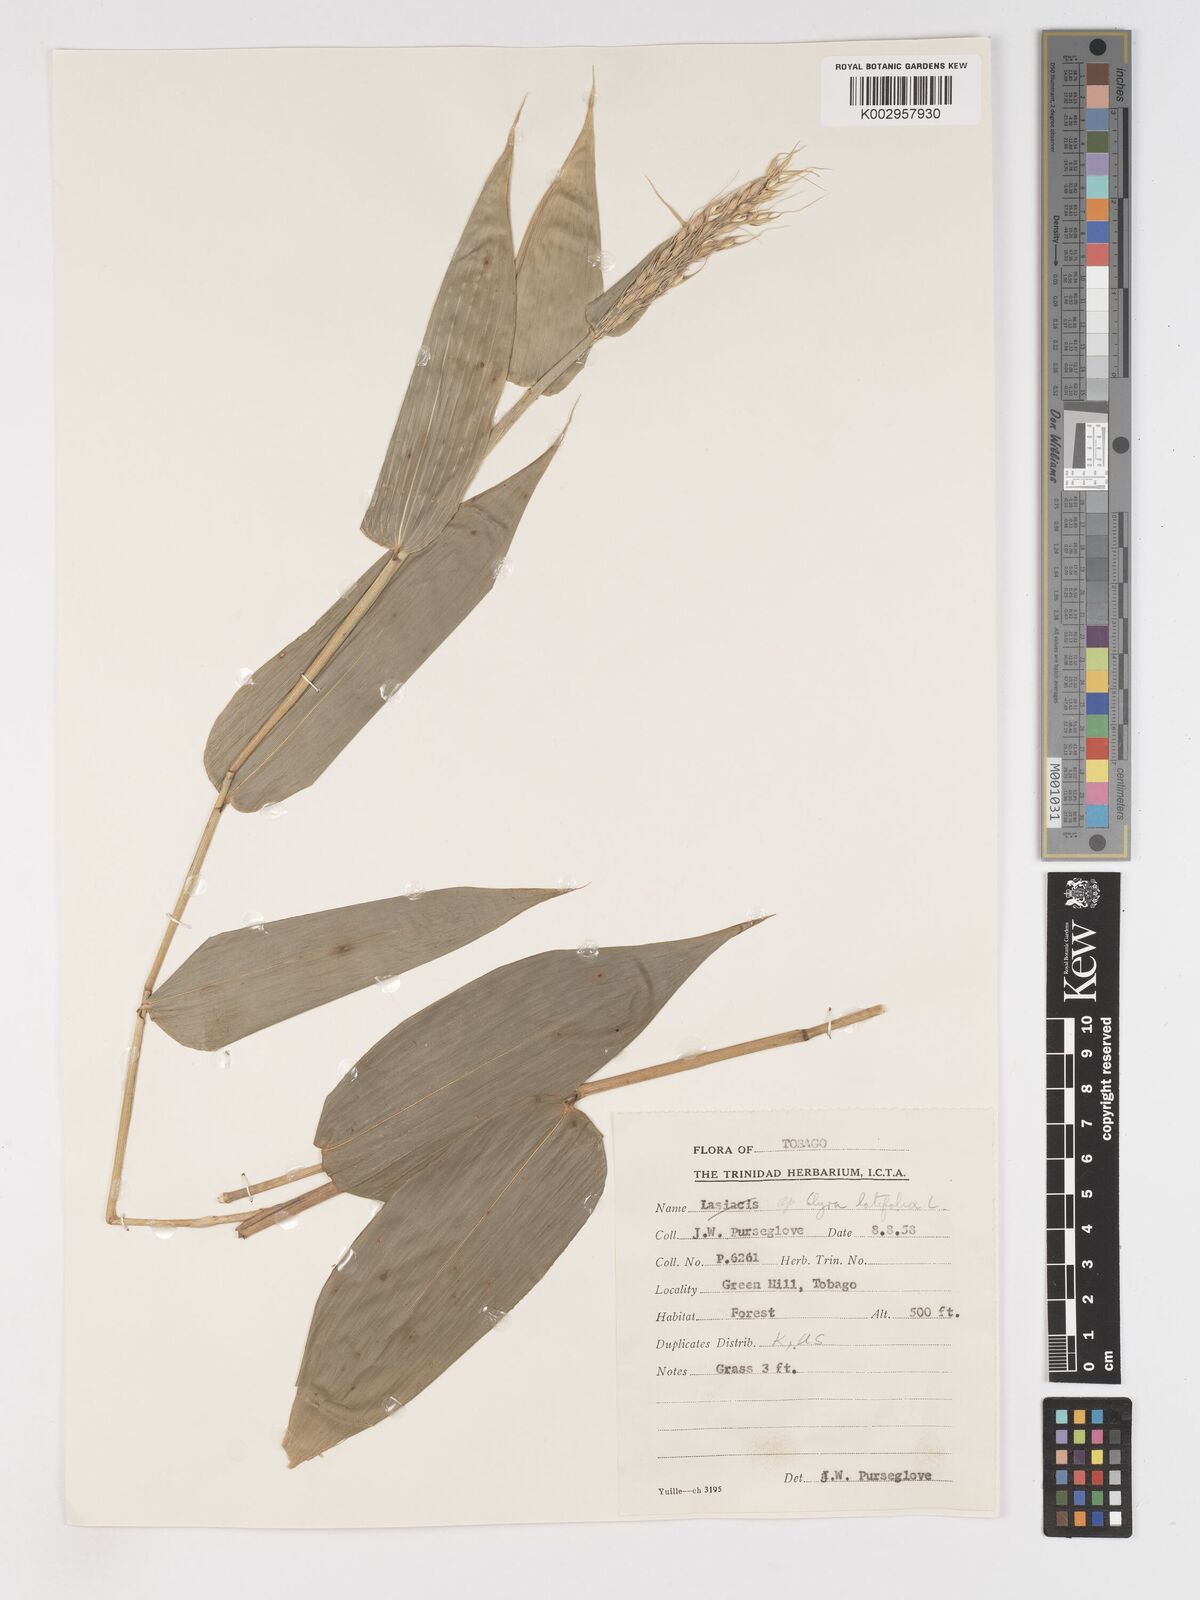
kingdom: Plantae
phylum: Tracheophyta
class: Liliopsida
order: Poales
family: Poaceae
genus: Olyra
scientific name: Olyra latifolia
